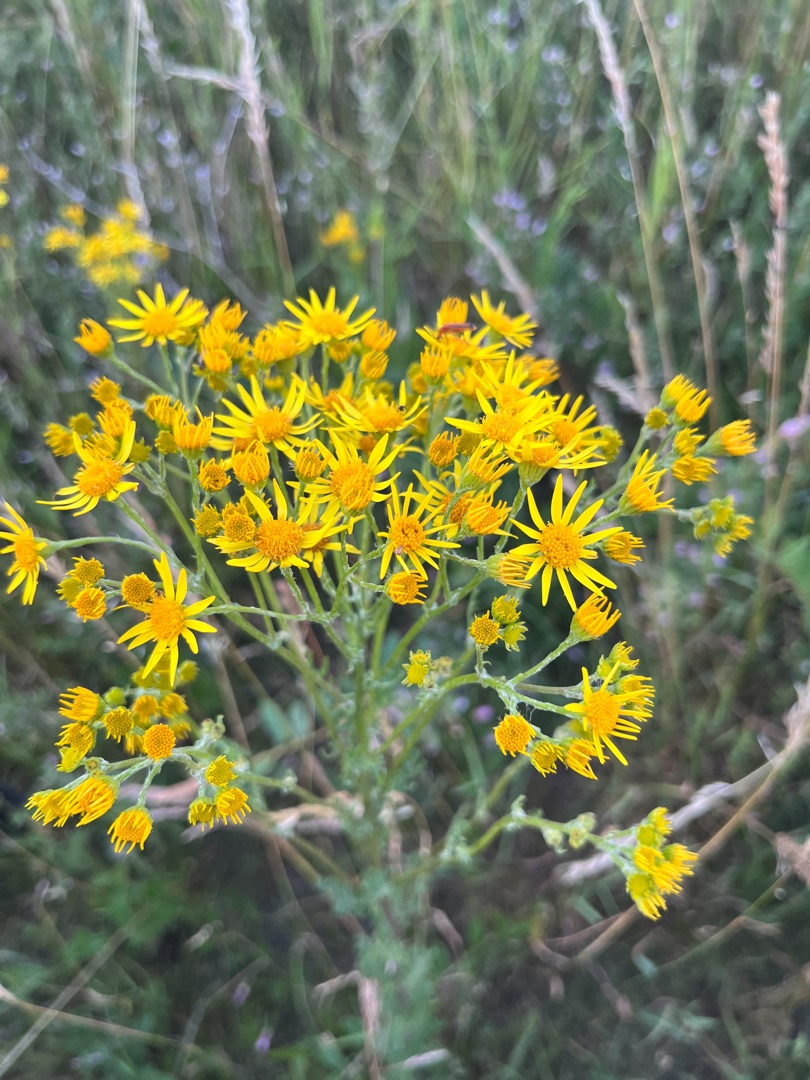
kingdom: Plantae
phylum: Tracheophyta
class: Magnoliopsida
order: Asterales
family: Asteraceae
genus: Jacobaea
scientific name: Jacobaea vulgaris
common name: Eng-brandbæger
